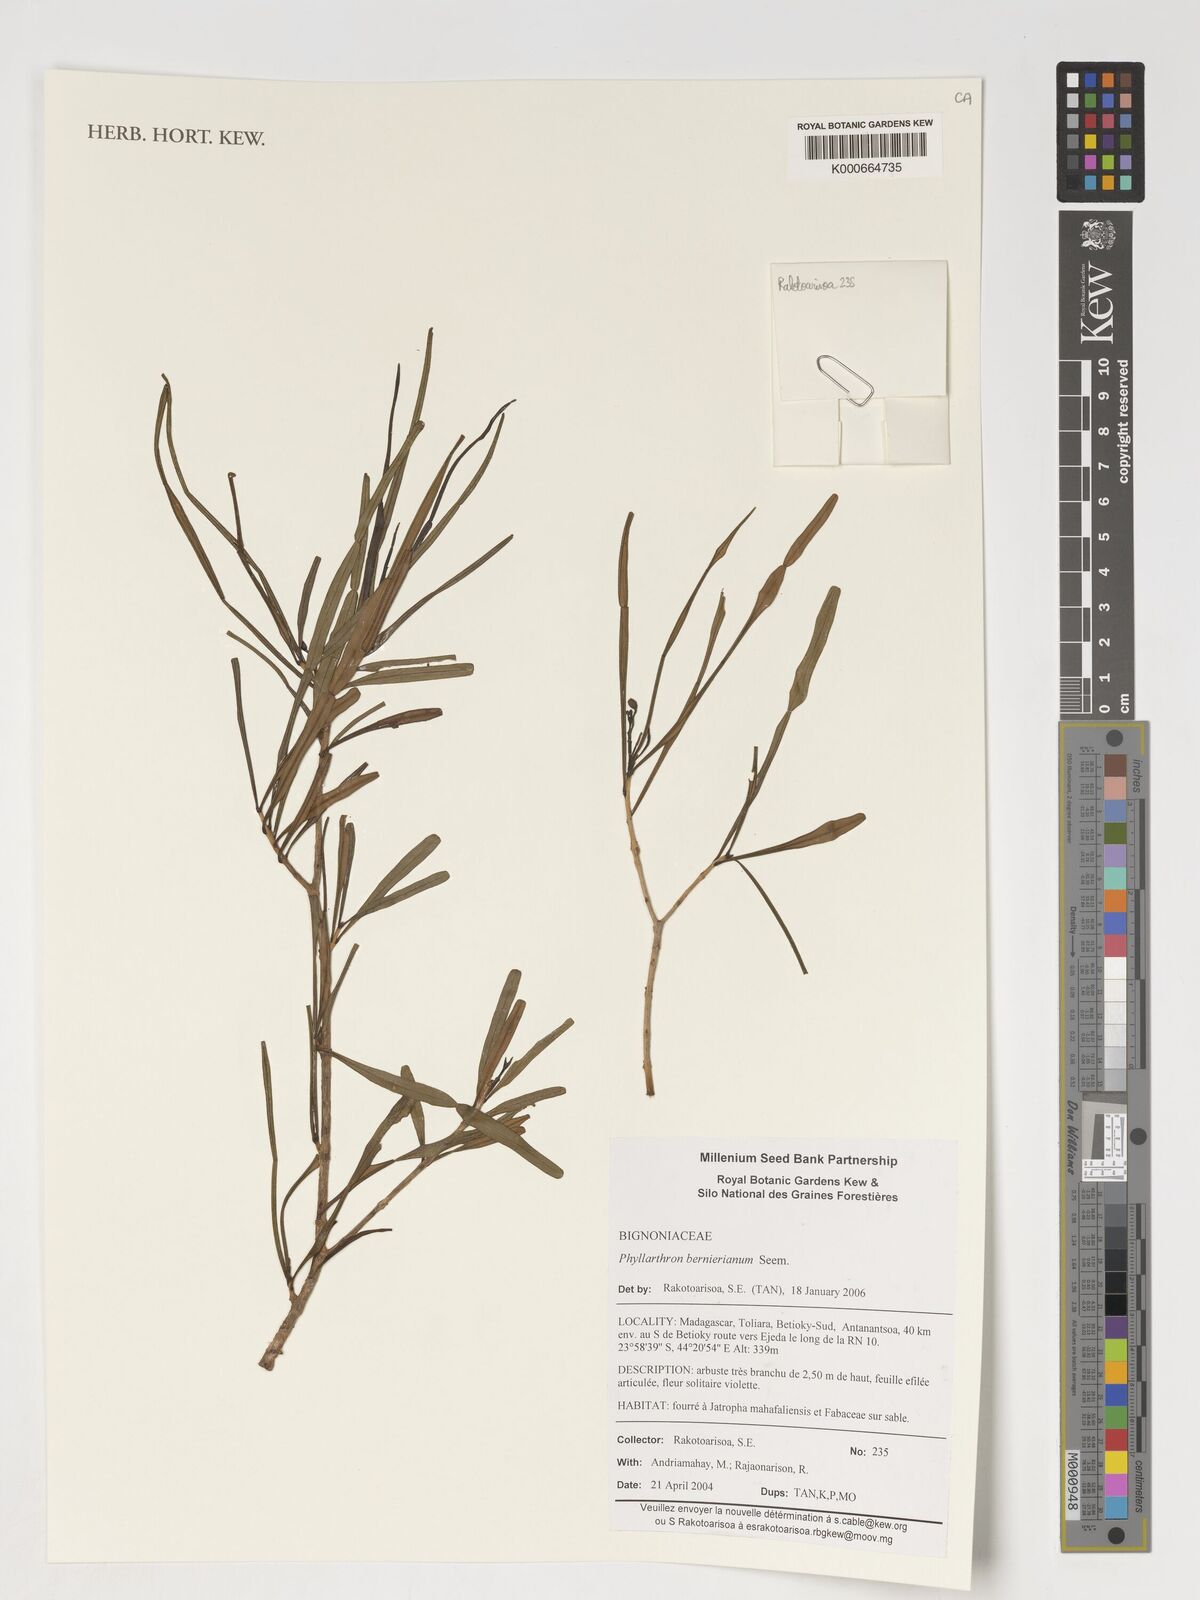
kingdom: Plantae
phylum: Tracheophyta
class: Magnoliopsida
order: Lamiales
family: Bignoniaceae
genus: Phyllarthron
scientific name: Phyllarthron bernierianum
